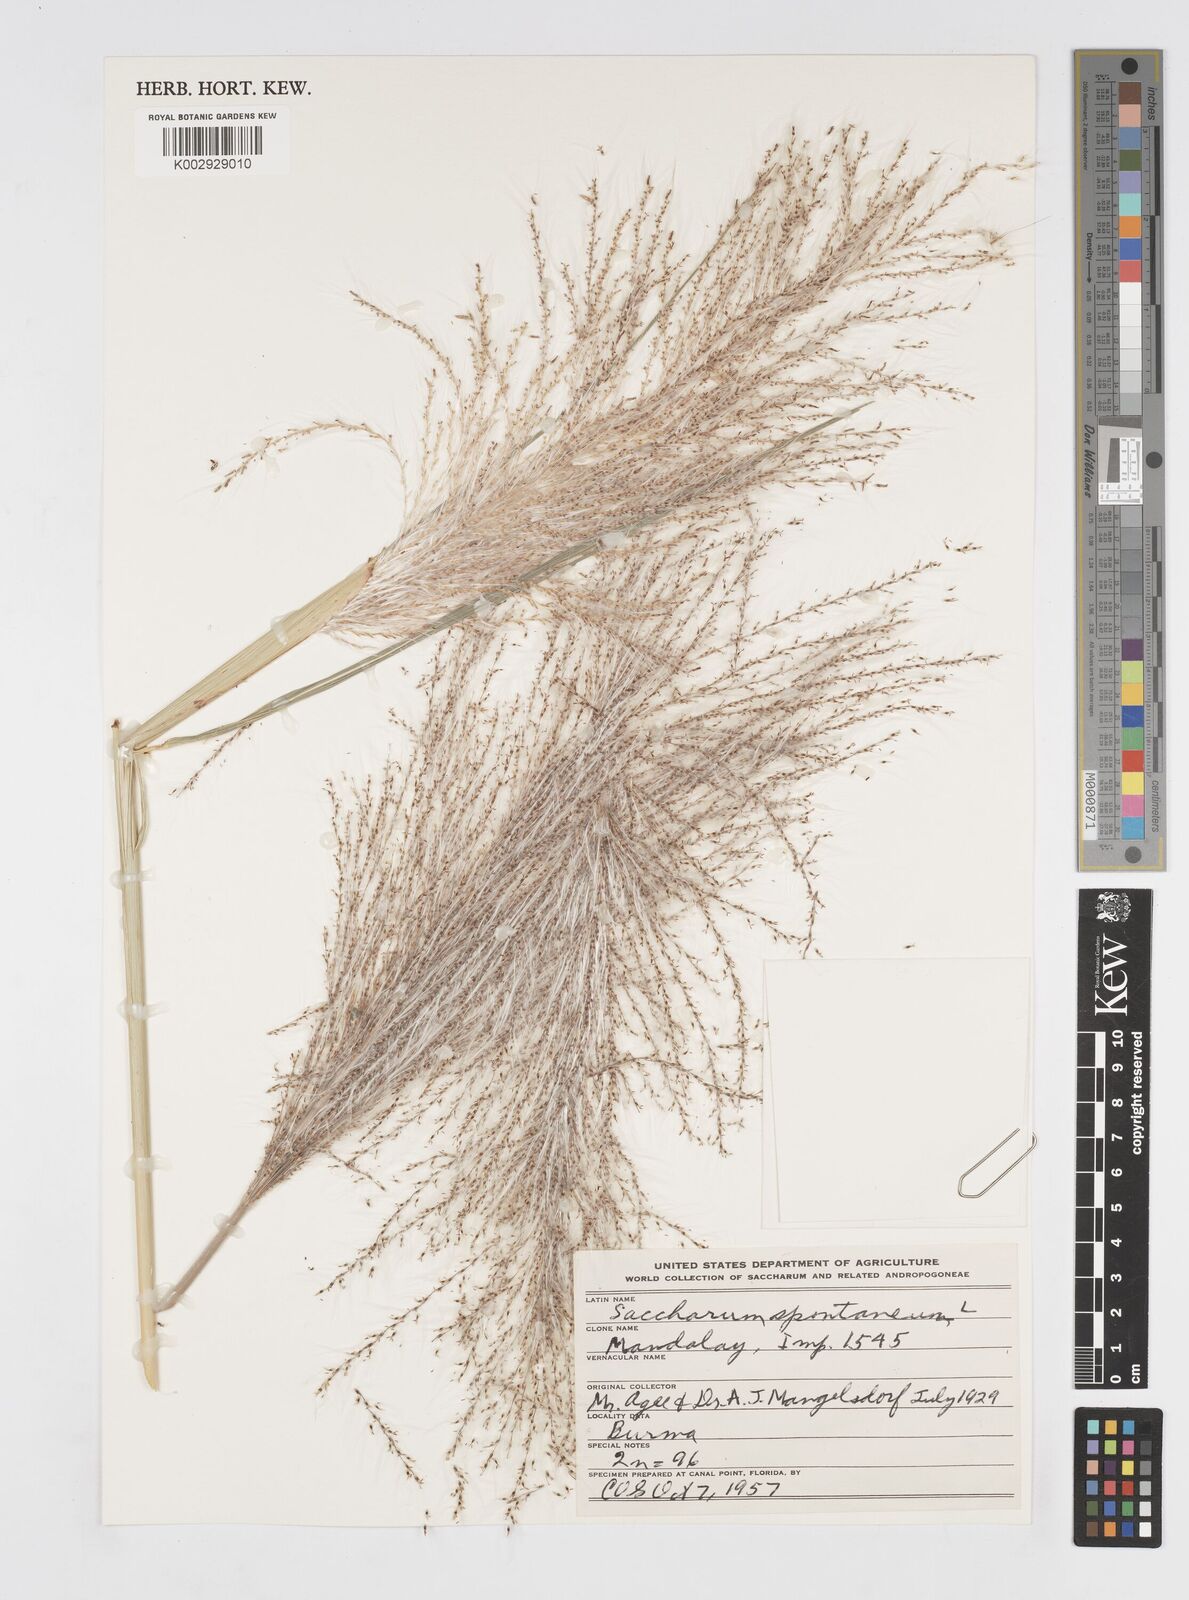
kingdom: Plantae
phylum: Tracheophyta
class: Liliopsida
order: Poales
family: Poaceae
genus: Saccharum
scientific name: Saccharum spontaneum
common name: Wild sugarcane
